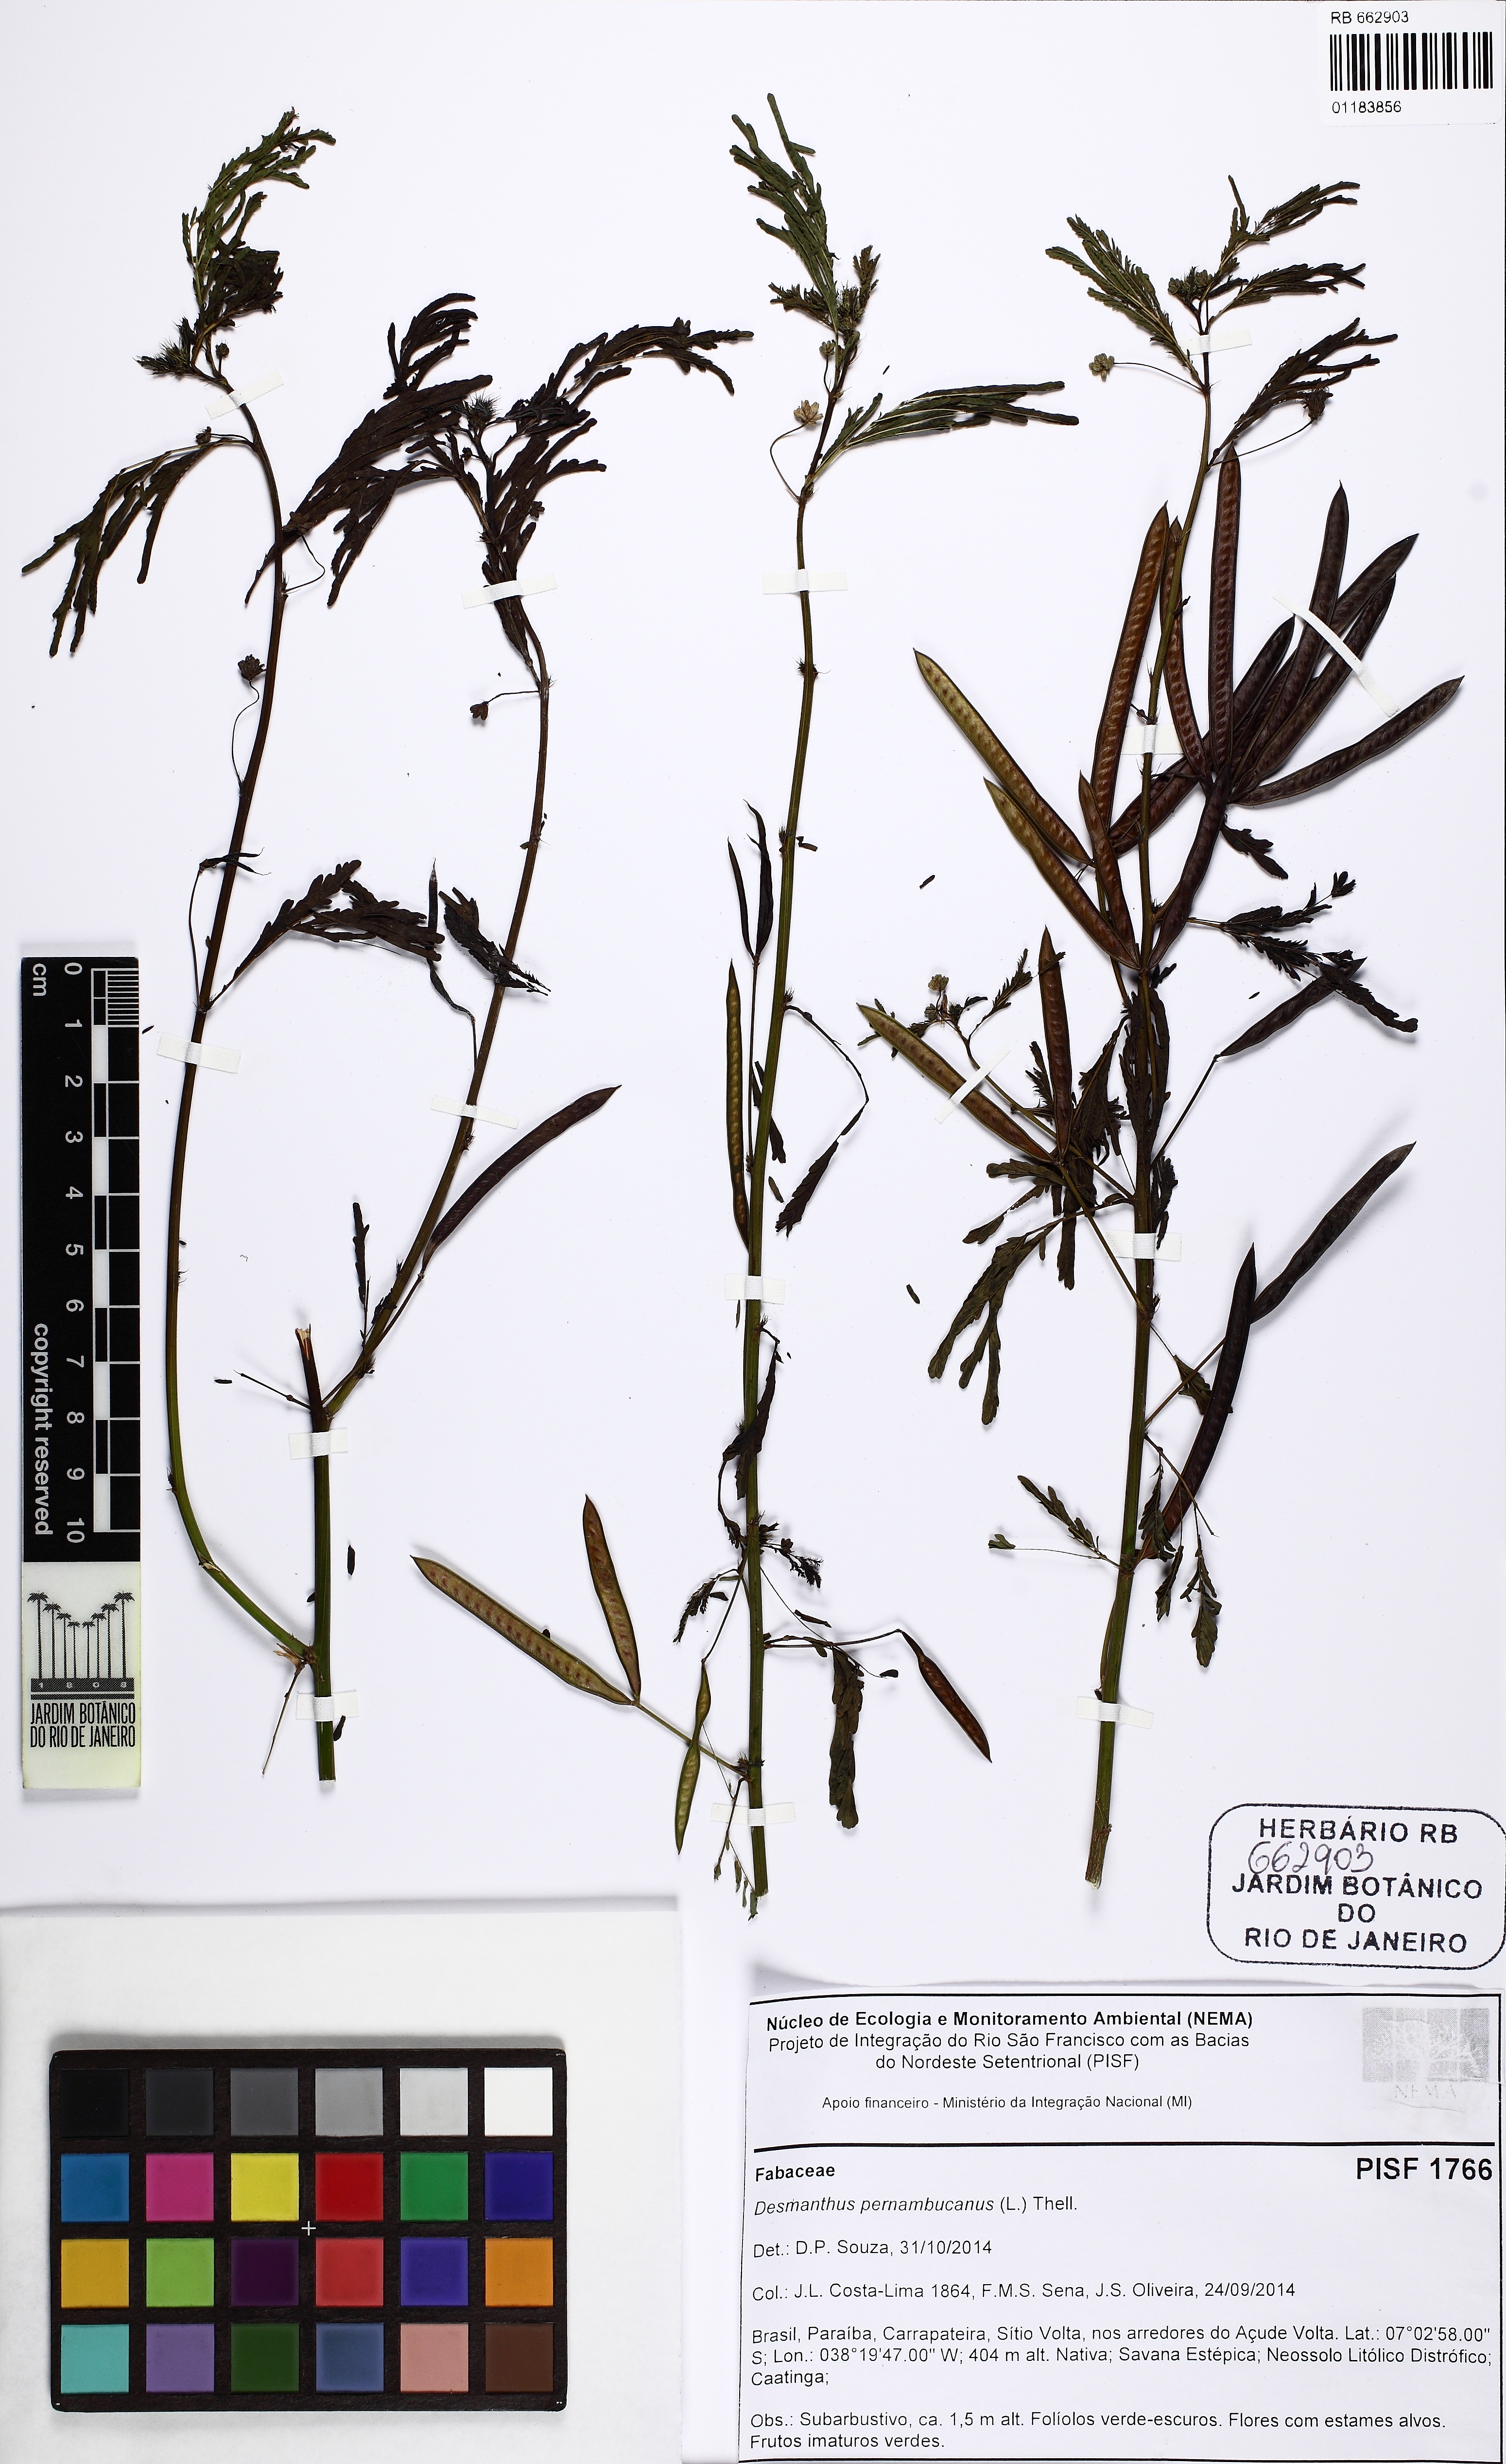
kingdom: Plantae
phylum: Tracheophyta
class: Magnoliopsida
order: Fabales
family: Fabaceae
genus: Desmanthus
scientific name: Desmanthus pernambucanus
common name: Pigeon bundleflower
